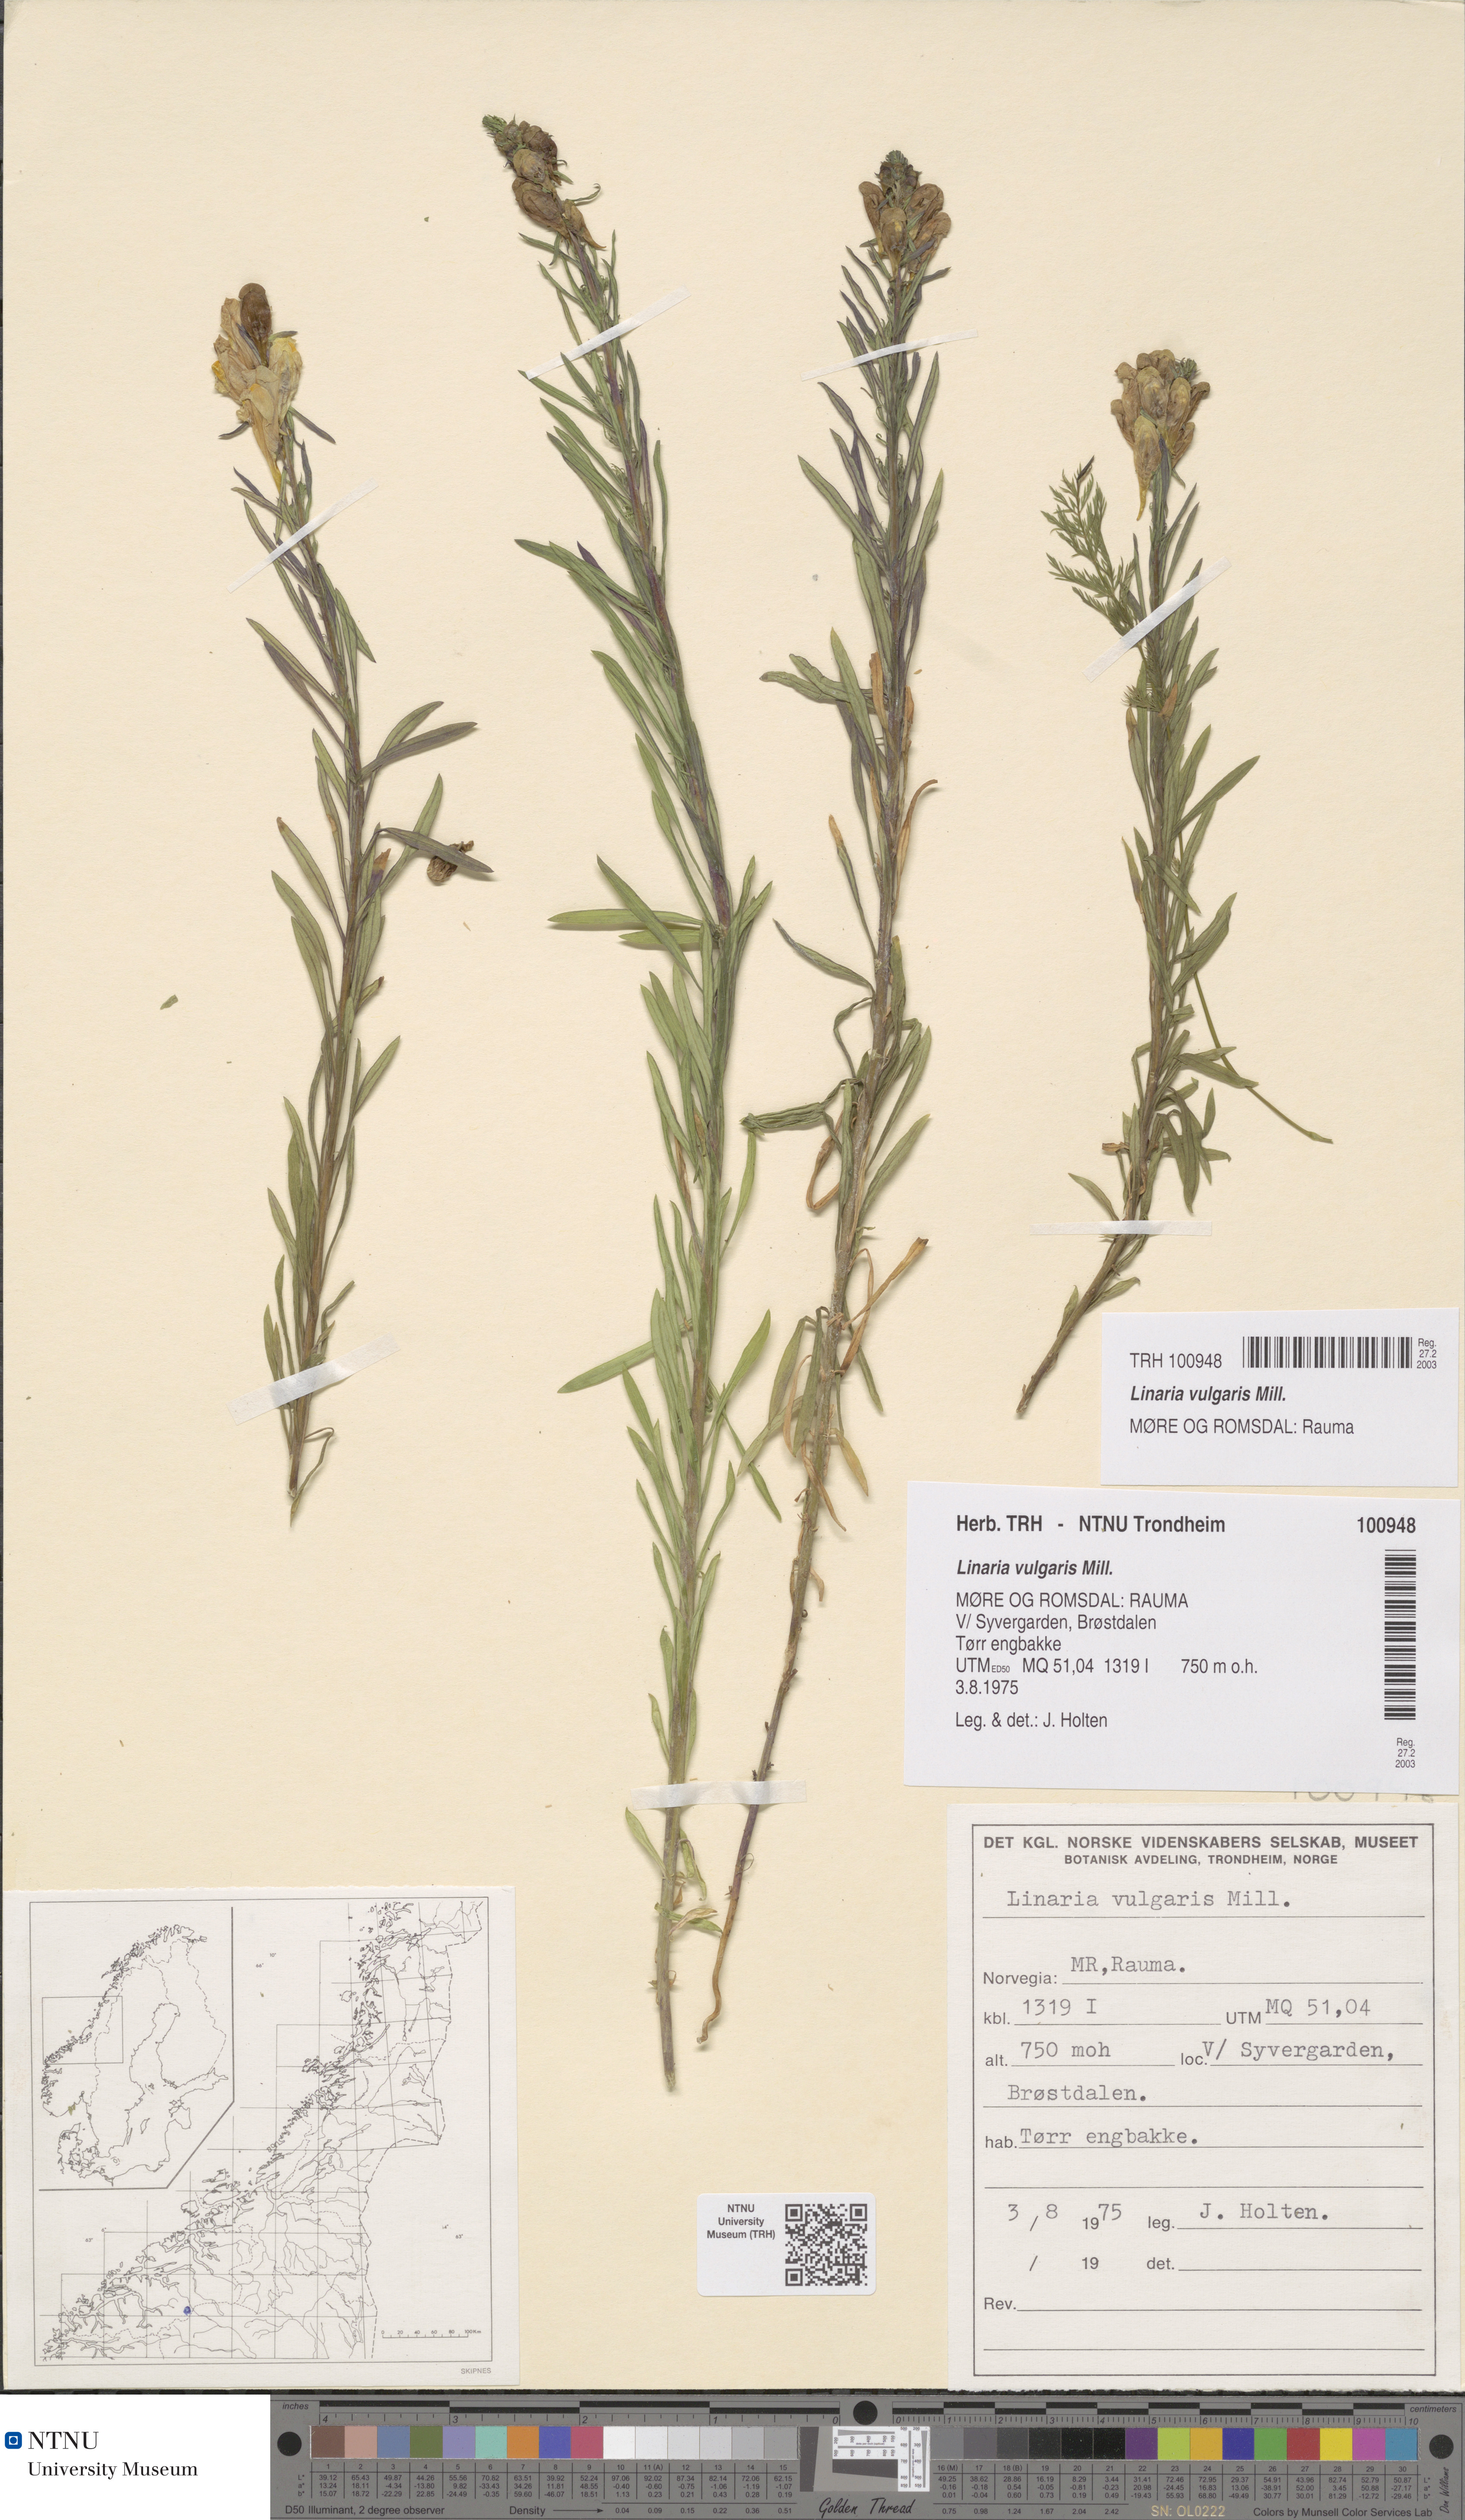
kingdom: Plantae
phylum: Tracheophyta
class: Magnoliopsida
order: Lamiales
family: Plantaginaceae
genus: Linaria
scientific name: Linaria vulgaris
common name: Butter and eggs
